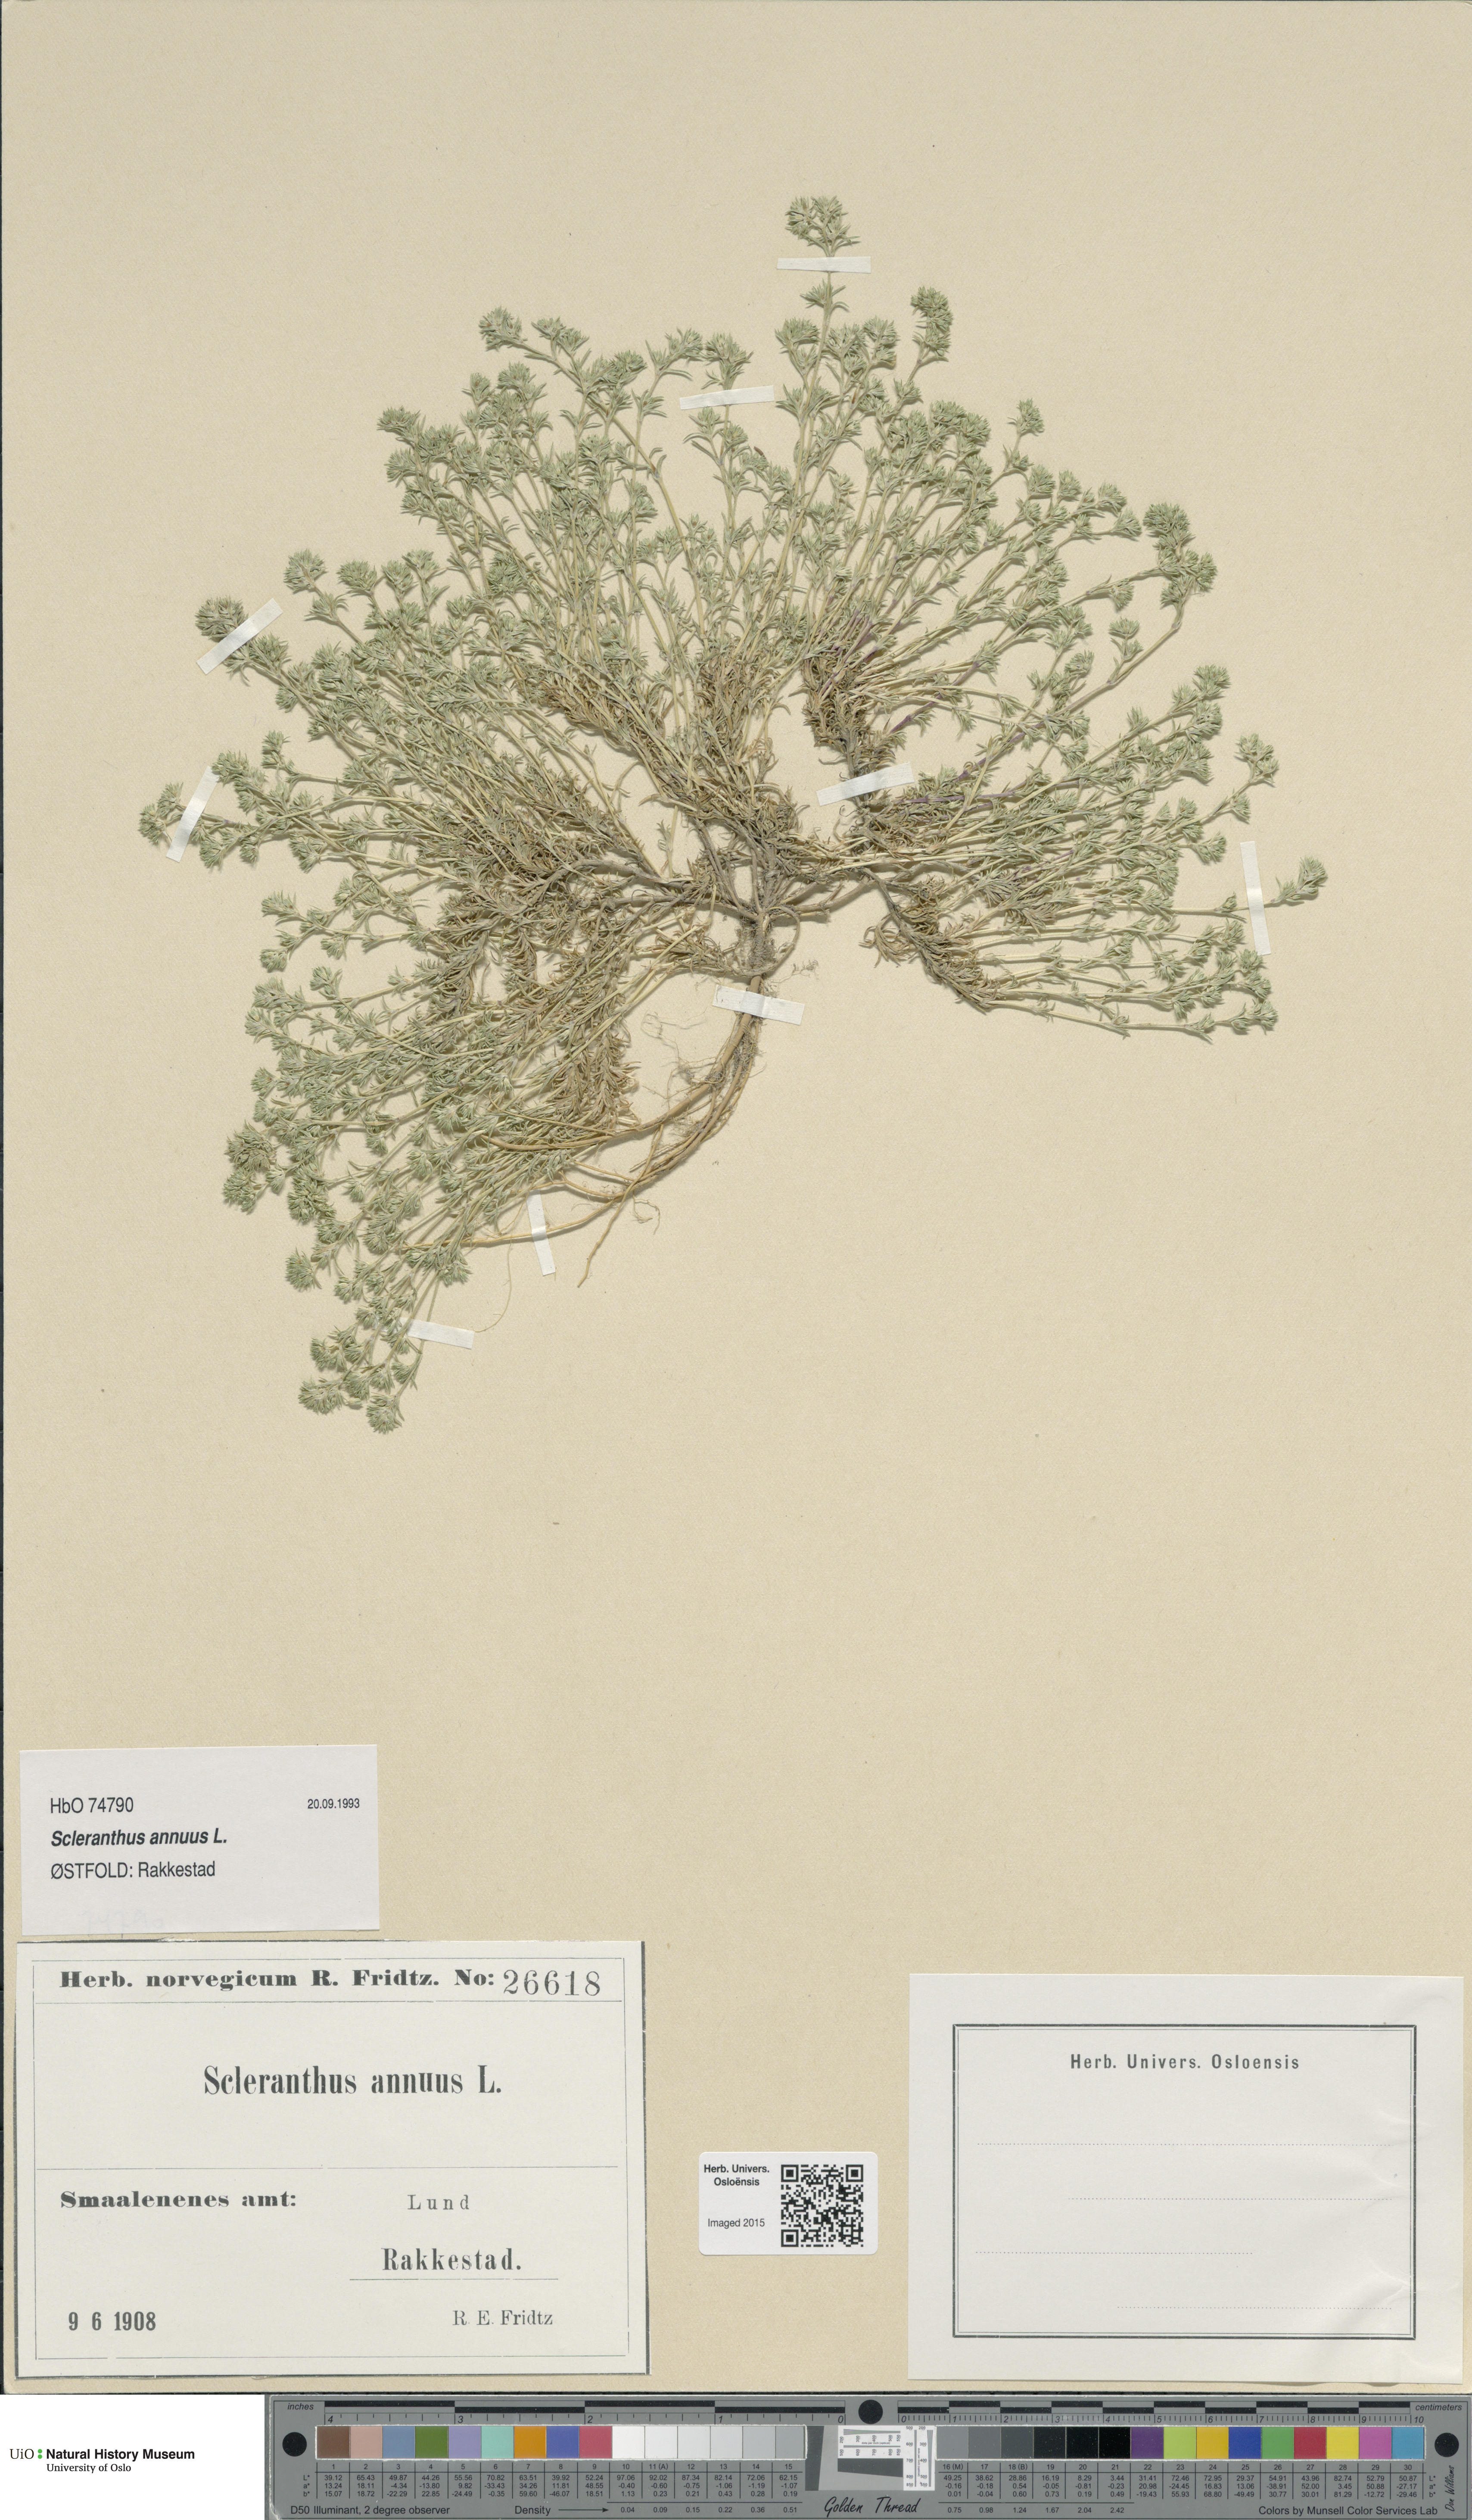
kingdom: Plantae
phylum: Tracheophyta
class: Magnoliopsida
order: Caryophyllales
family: Caryophyllaceae
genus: Scleranthus
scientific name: Scleranthus annuus
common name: Annual knawel
